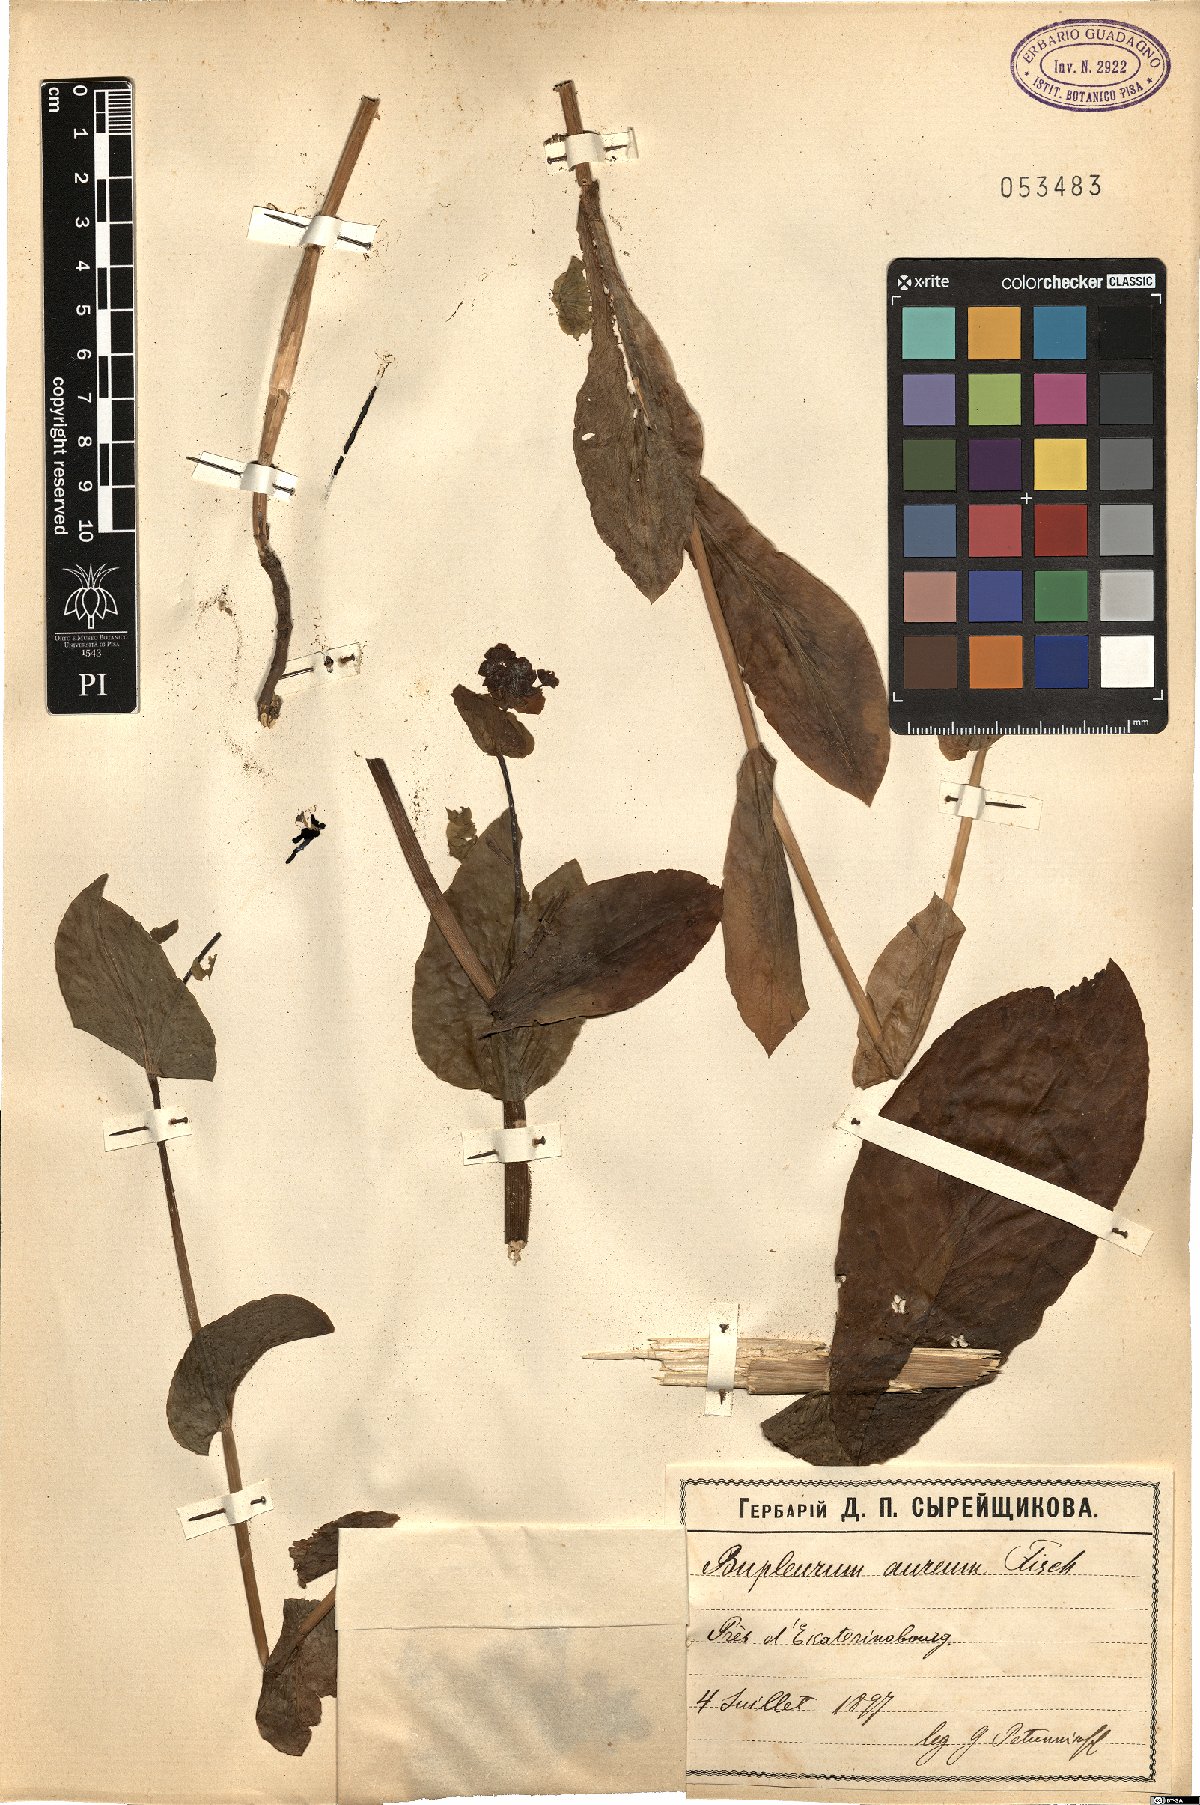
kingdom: Plantae
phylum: Tracheophyta
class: Magnoliopsida
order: Apiales
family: Apiaceae
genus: Bupleurum
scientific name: Bupleurum aureum
